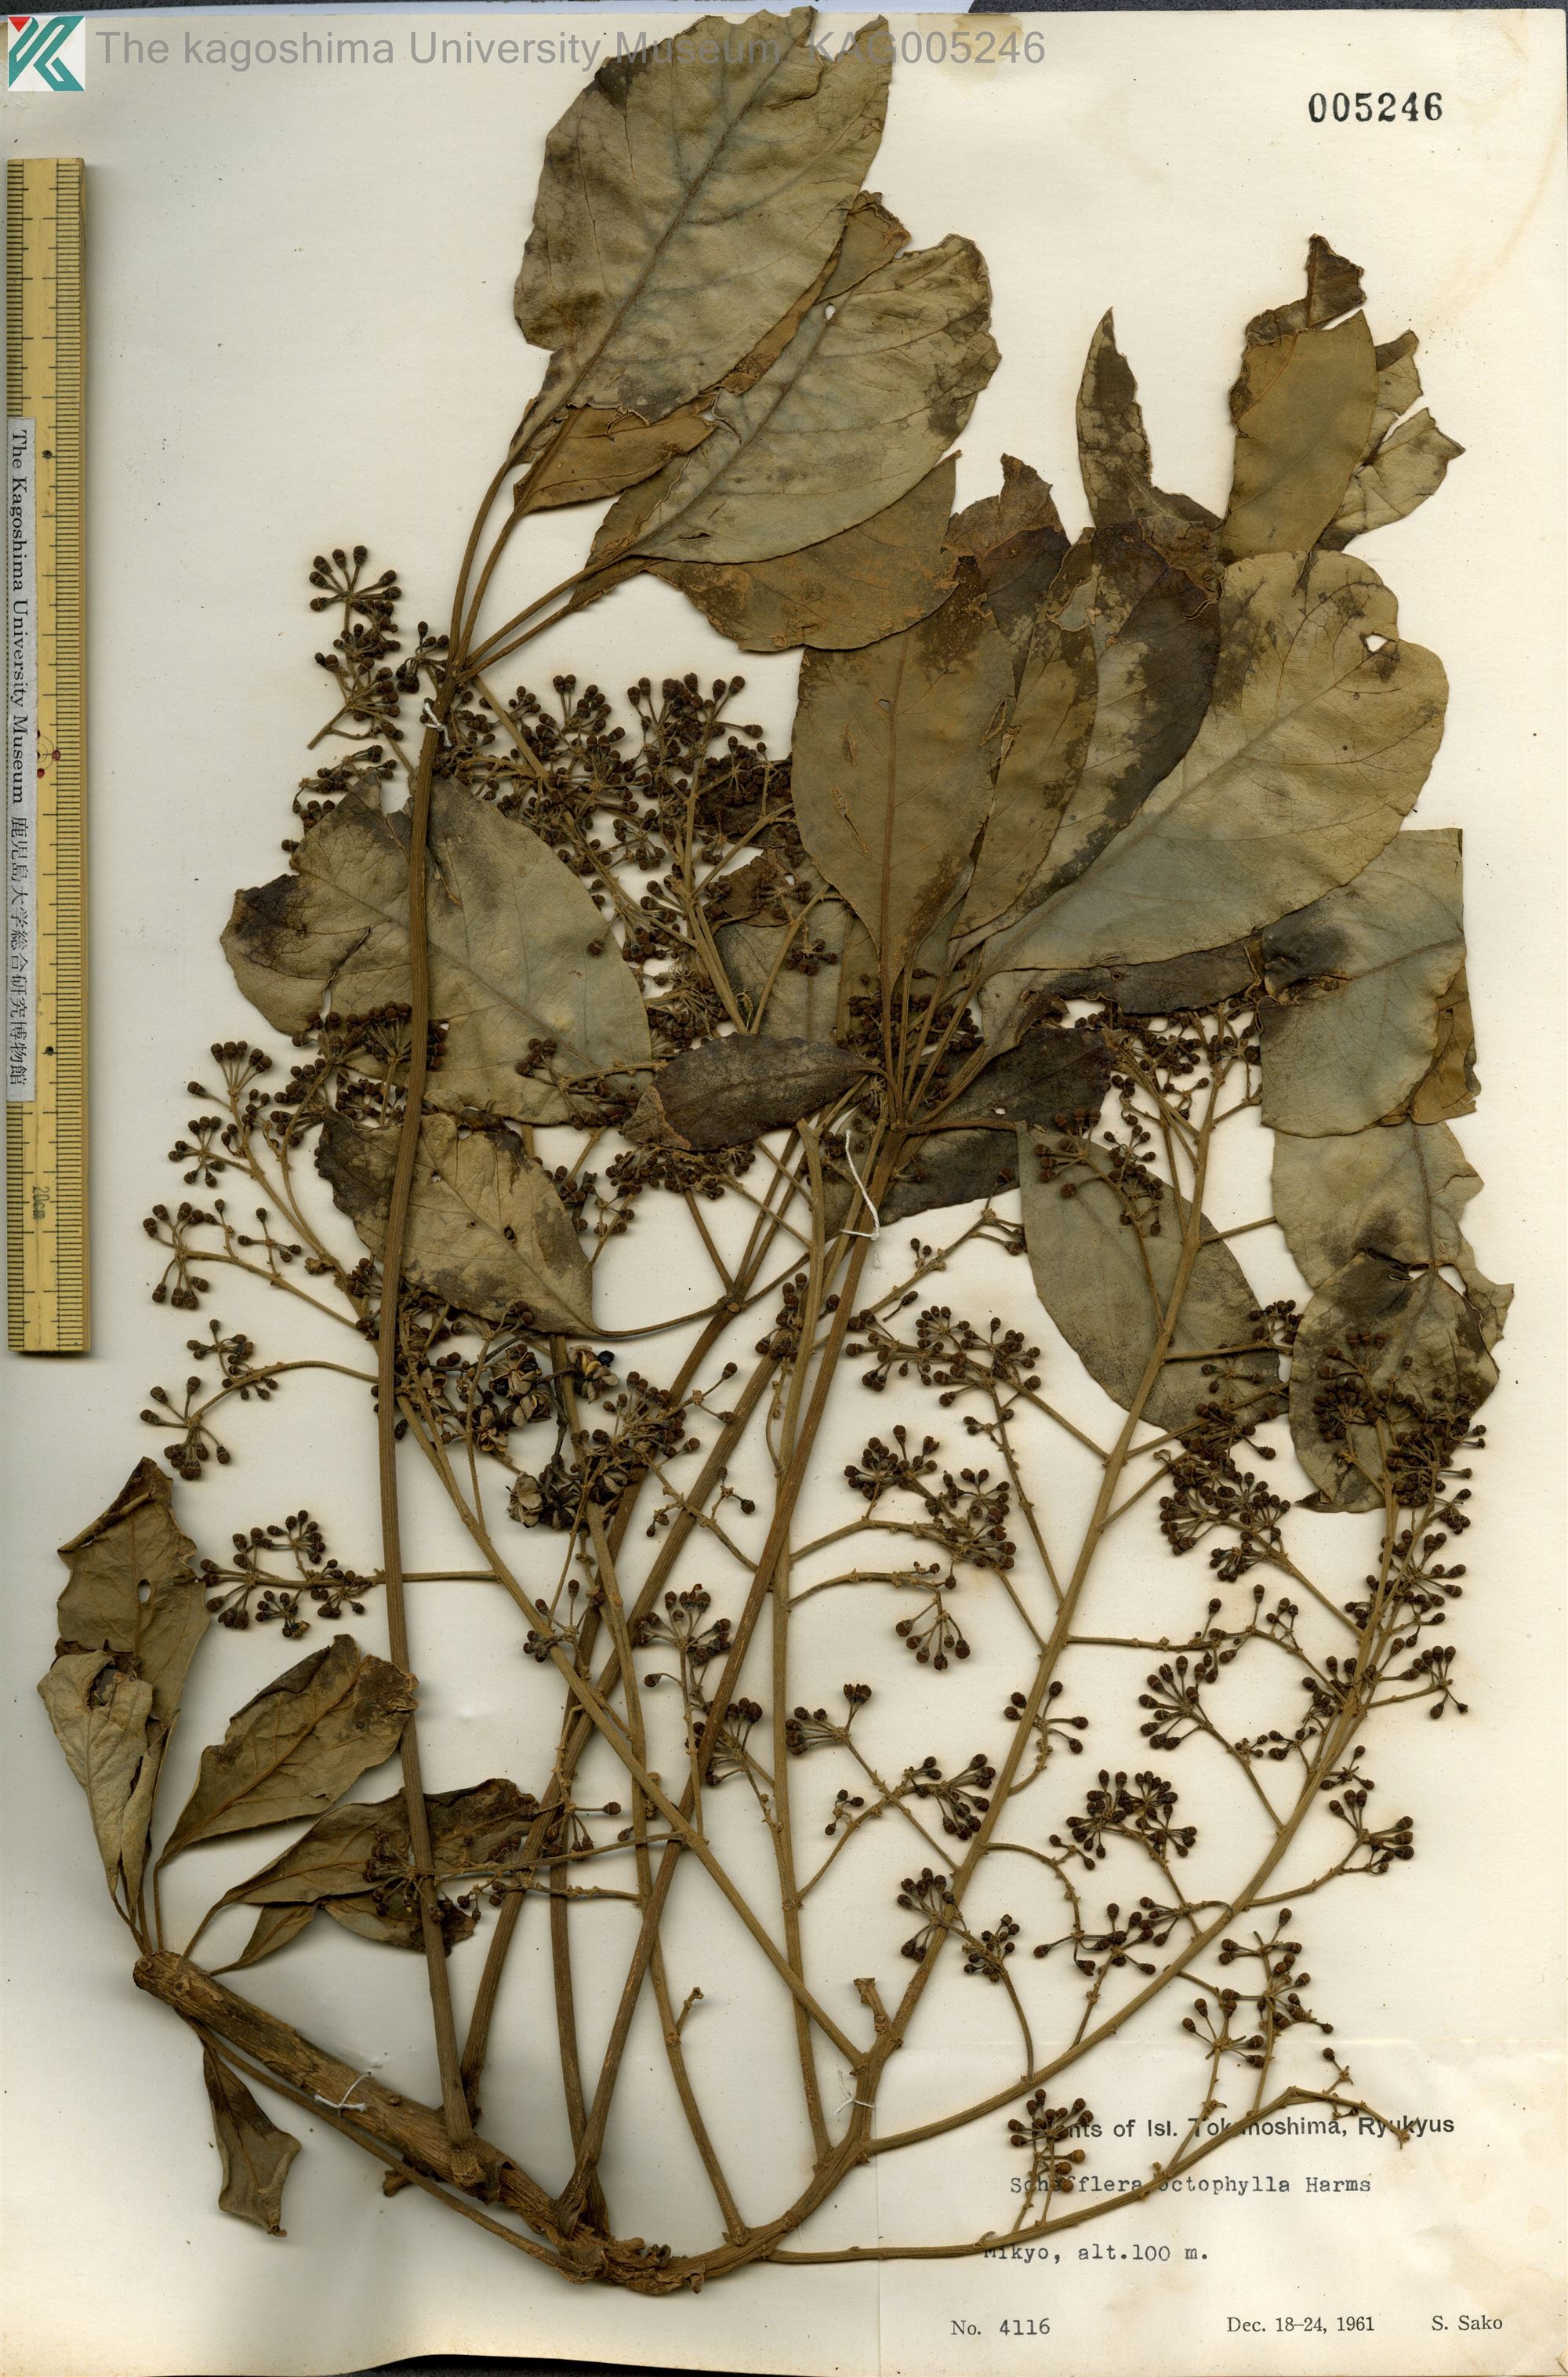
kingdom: Plantae
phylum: Tracheophyta
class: Magnoliopsida
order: Apiales
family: Araliaceae
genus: Heptapleurum
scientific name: Heptapleurum heptaphyllum
